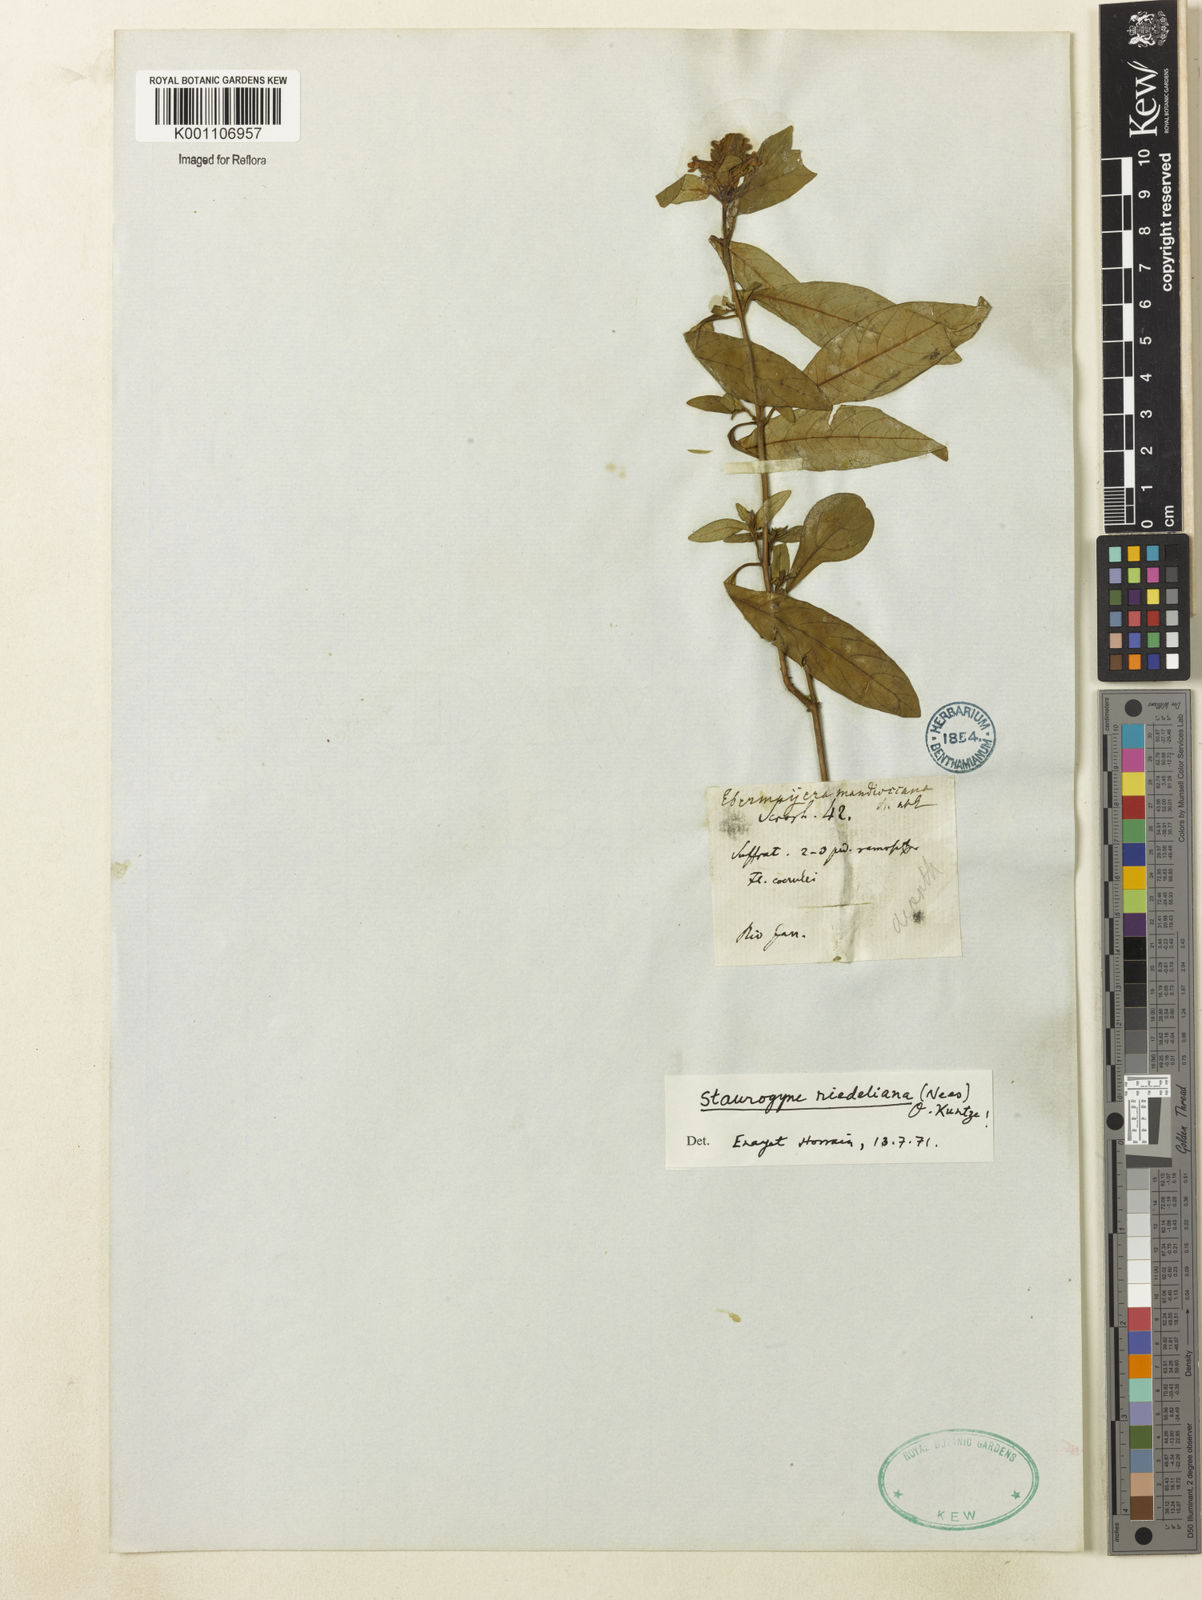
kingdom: Plantae
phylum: Tracheophyta
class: Magnoliopsida
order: Lamiales
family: Acanthaceae
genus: Staurogyne
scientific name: Staurogyne riedeliana
